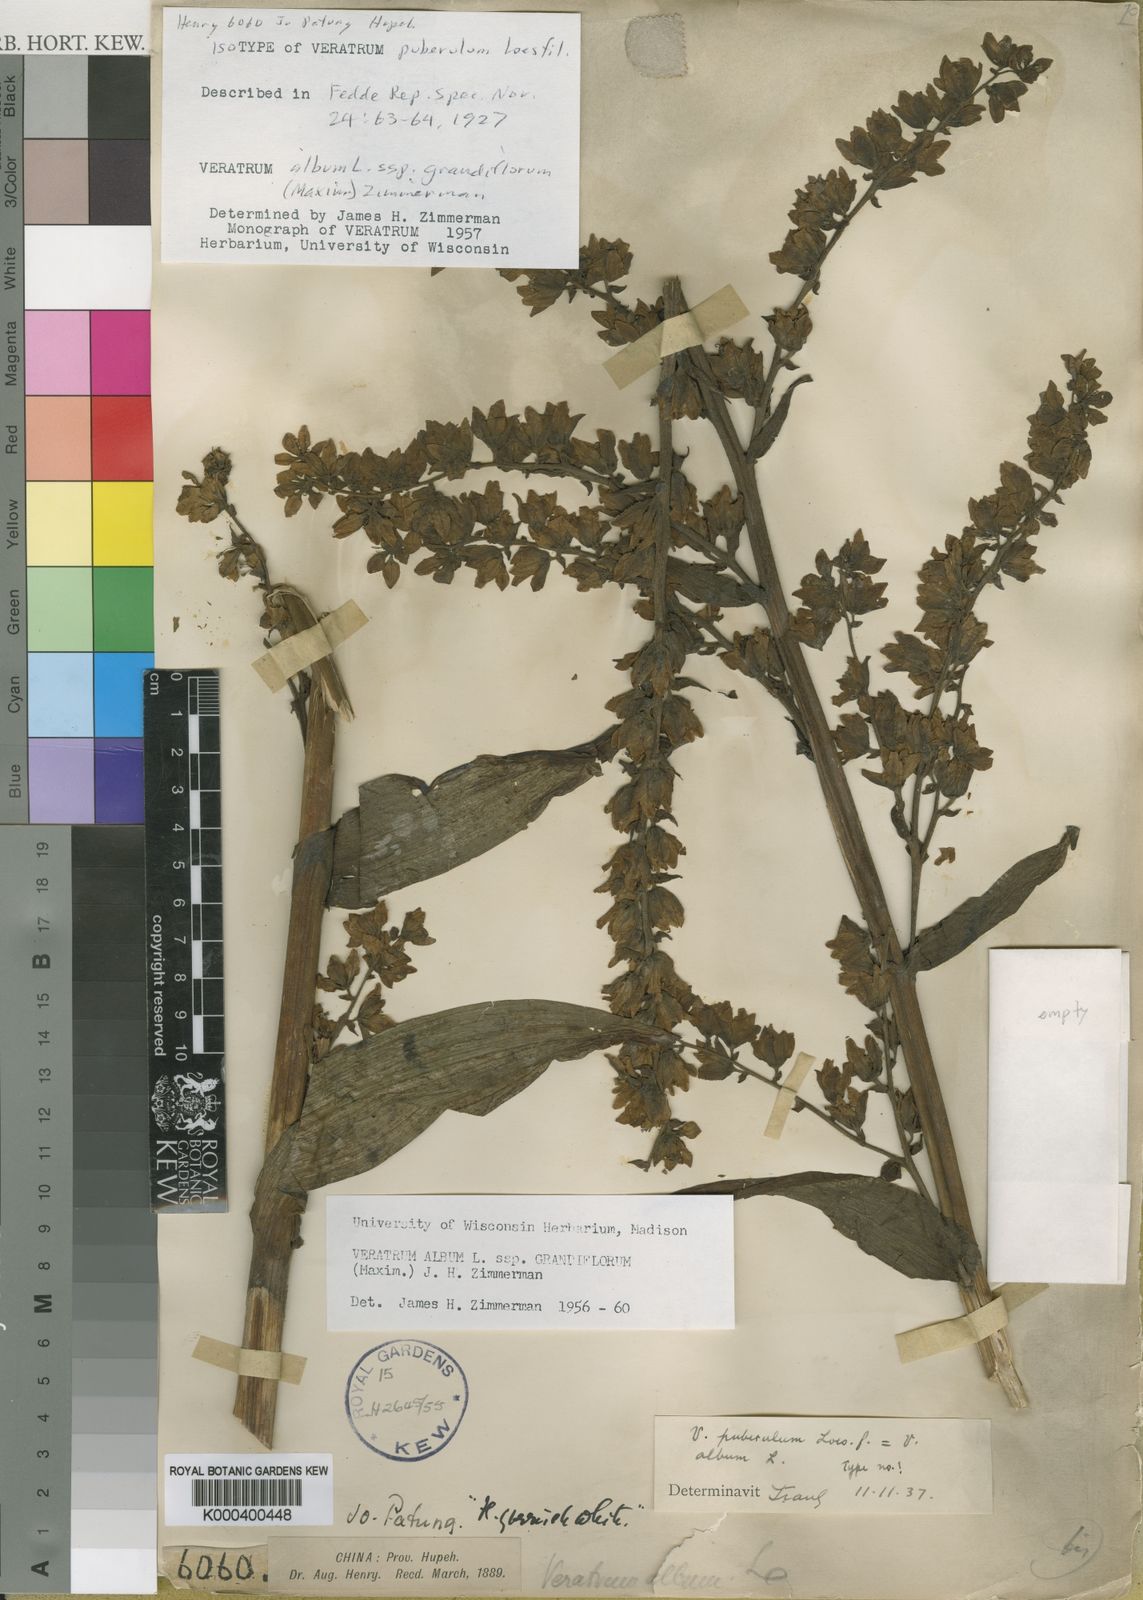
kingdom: Plantae
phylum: Tracheophyta
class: Liliopsida
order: Liliales
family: Melanthiaceae
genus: Veratrum
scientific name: Veratrum album
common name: White veratrum
